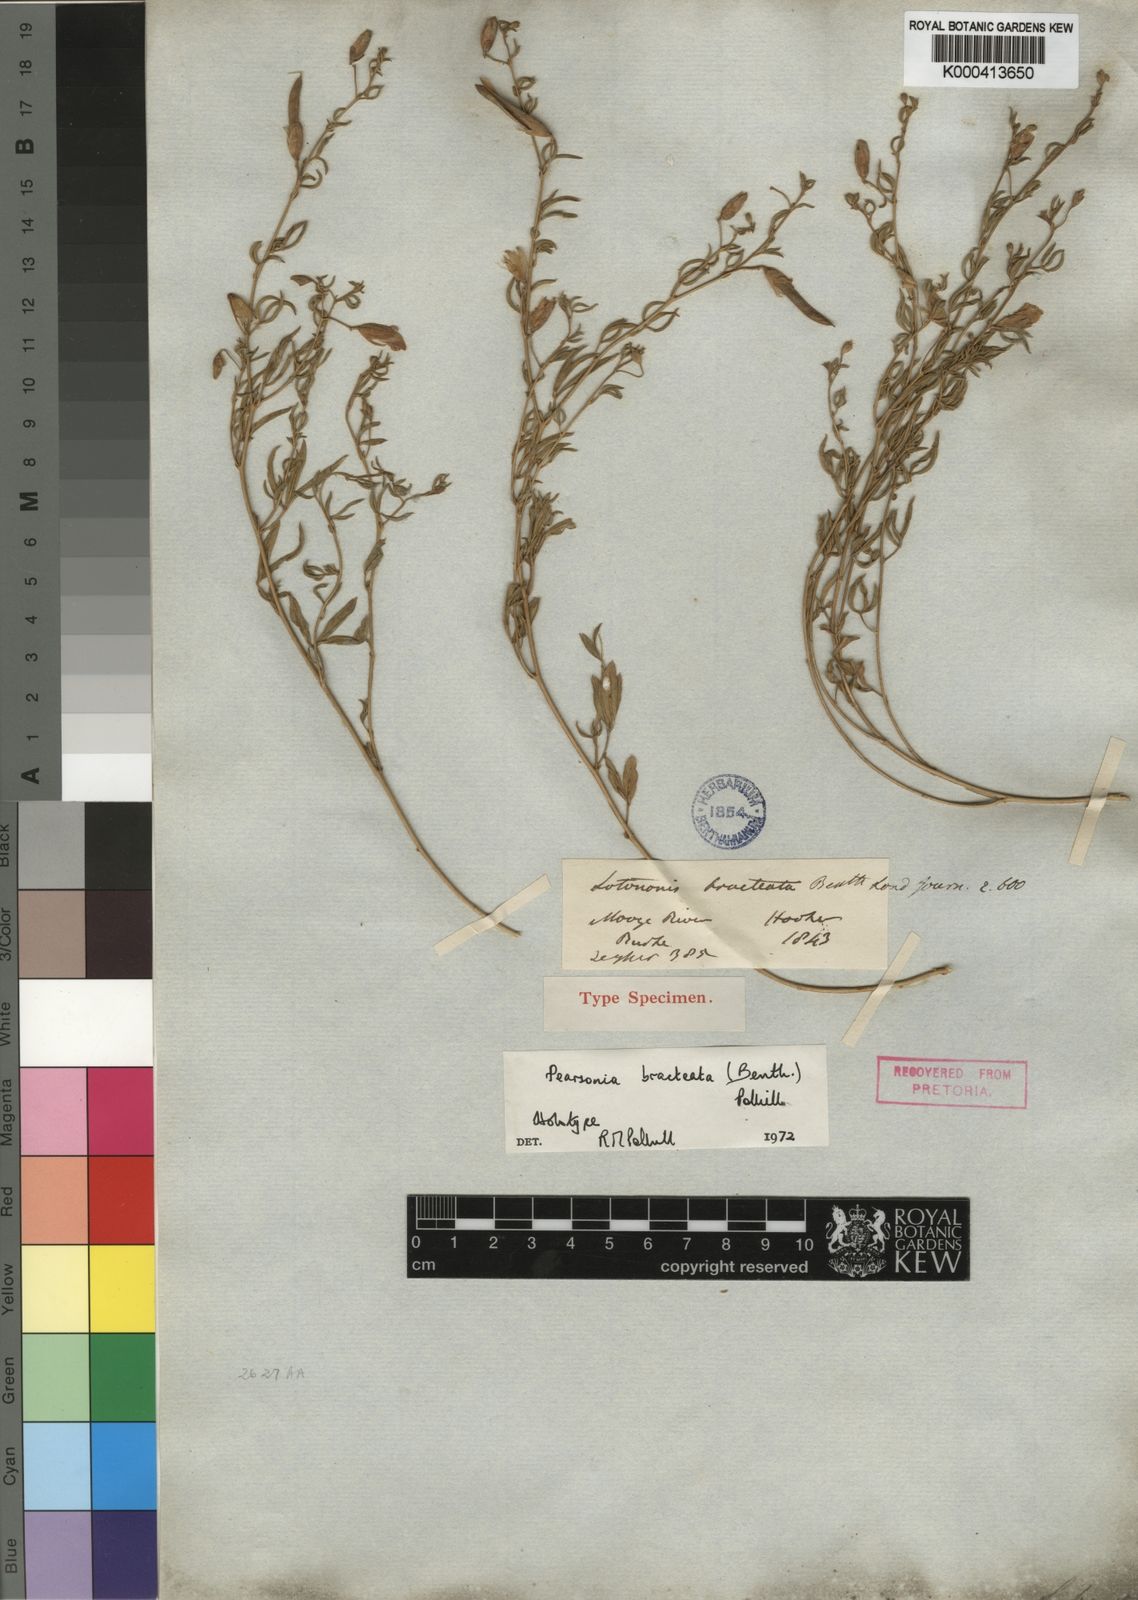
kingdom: Plantae
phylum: Tracheophyta
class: Magnoliopsida
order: Fabales
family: Fabaceae
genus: Pearsonia
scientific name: Pearsonia bracteata
